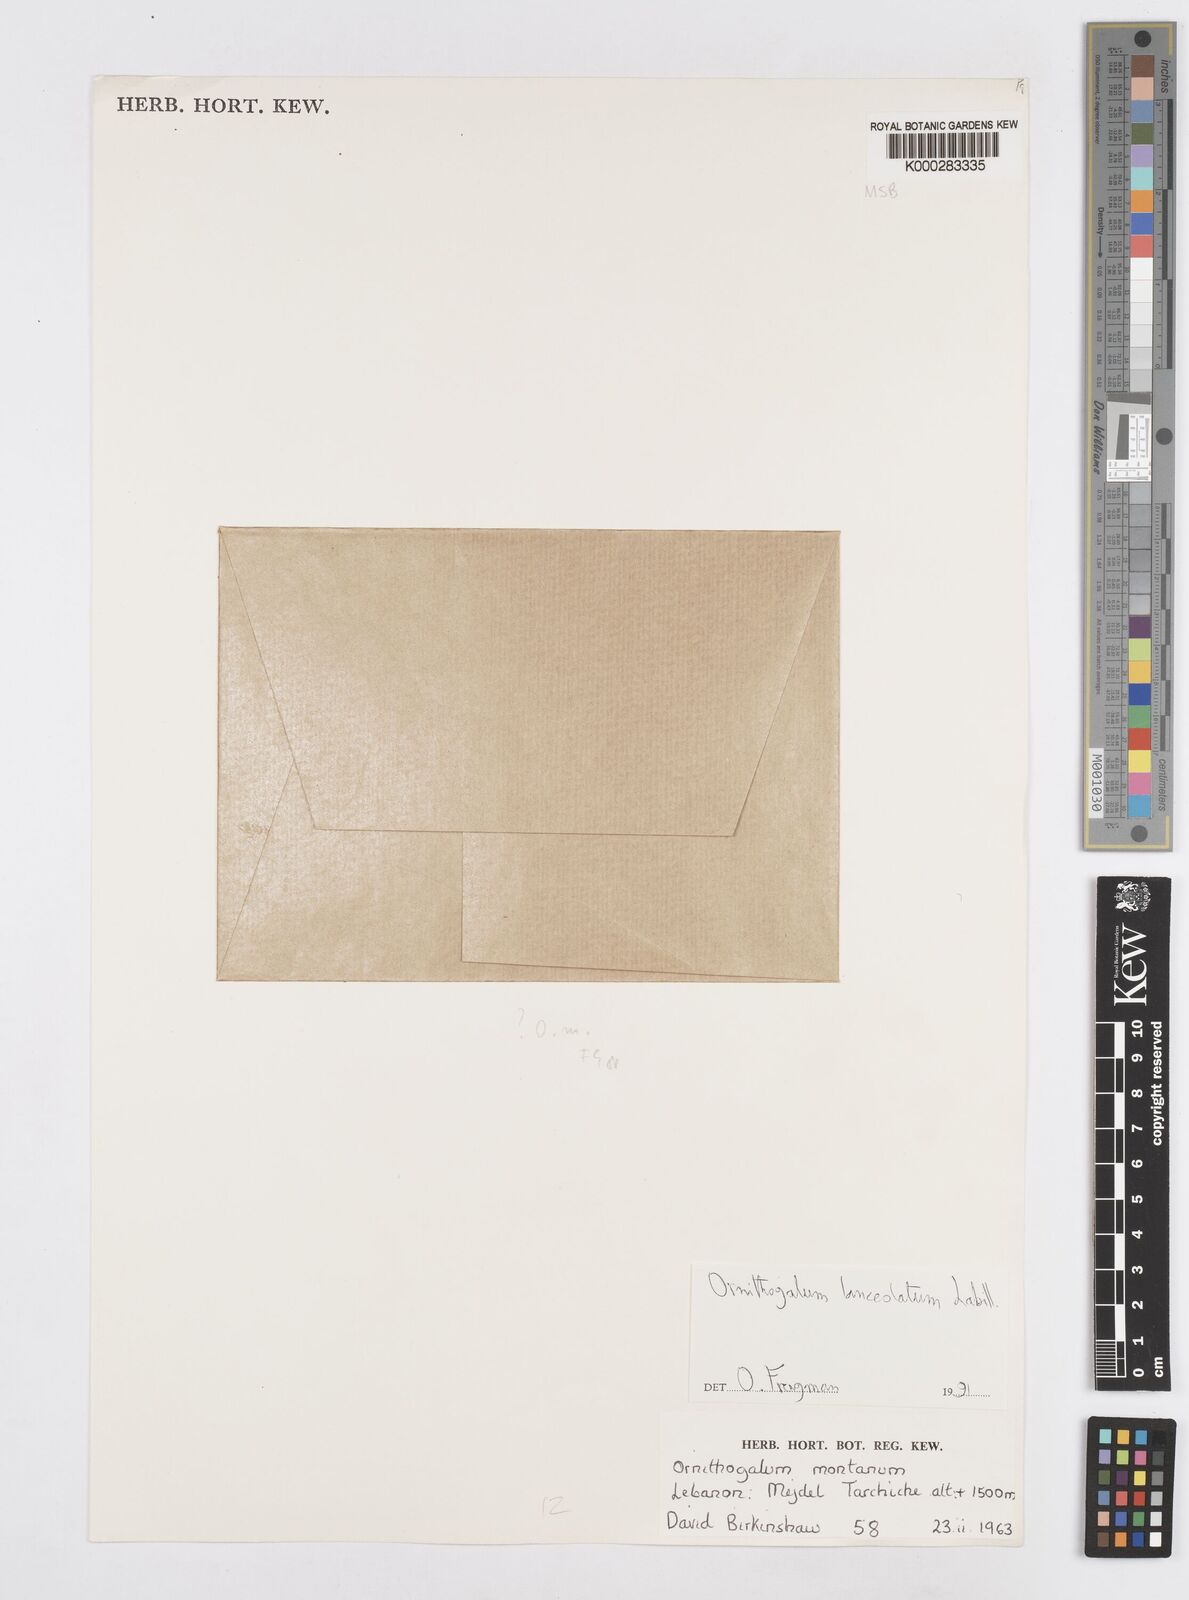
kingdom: Plantae
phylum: Tracheophyta
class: Liliopsida
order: Asparagales
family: Asparagaceae
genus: Ornithogalum
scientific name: Ornithogalum lanceolatum
